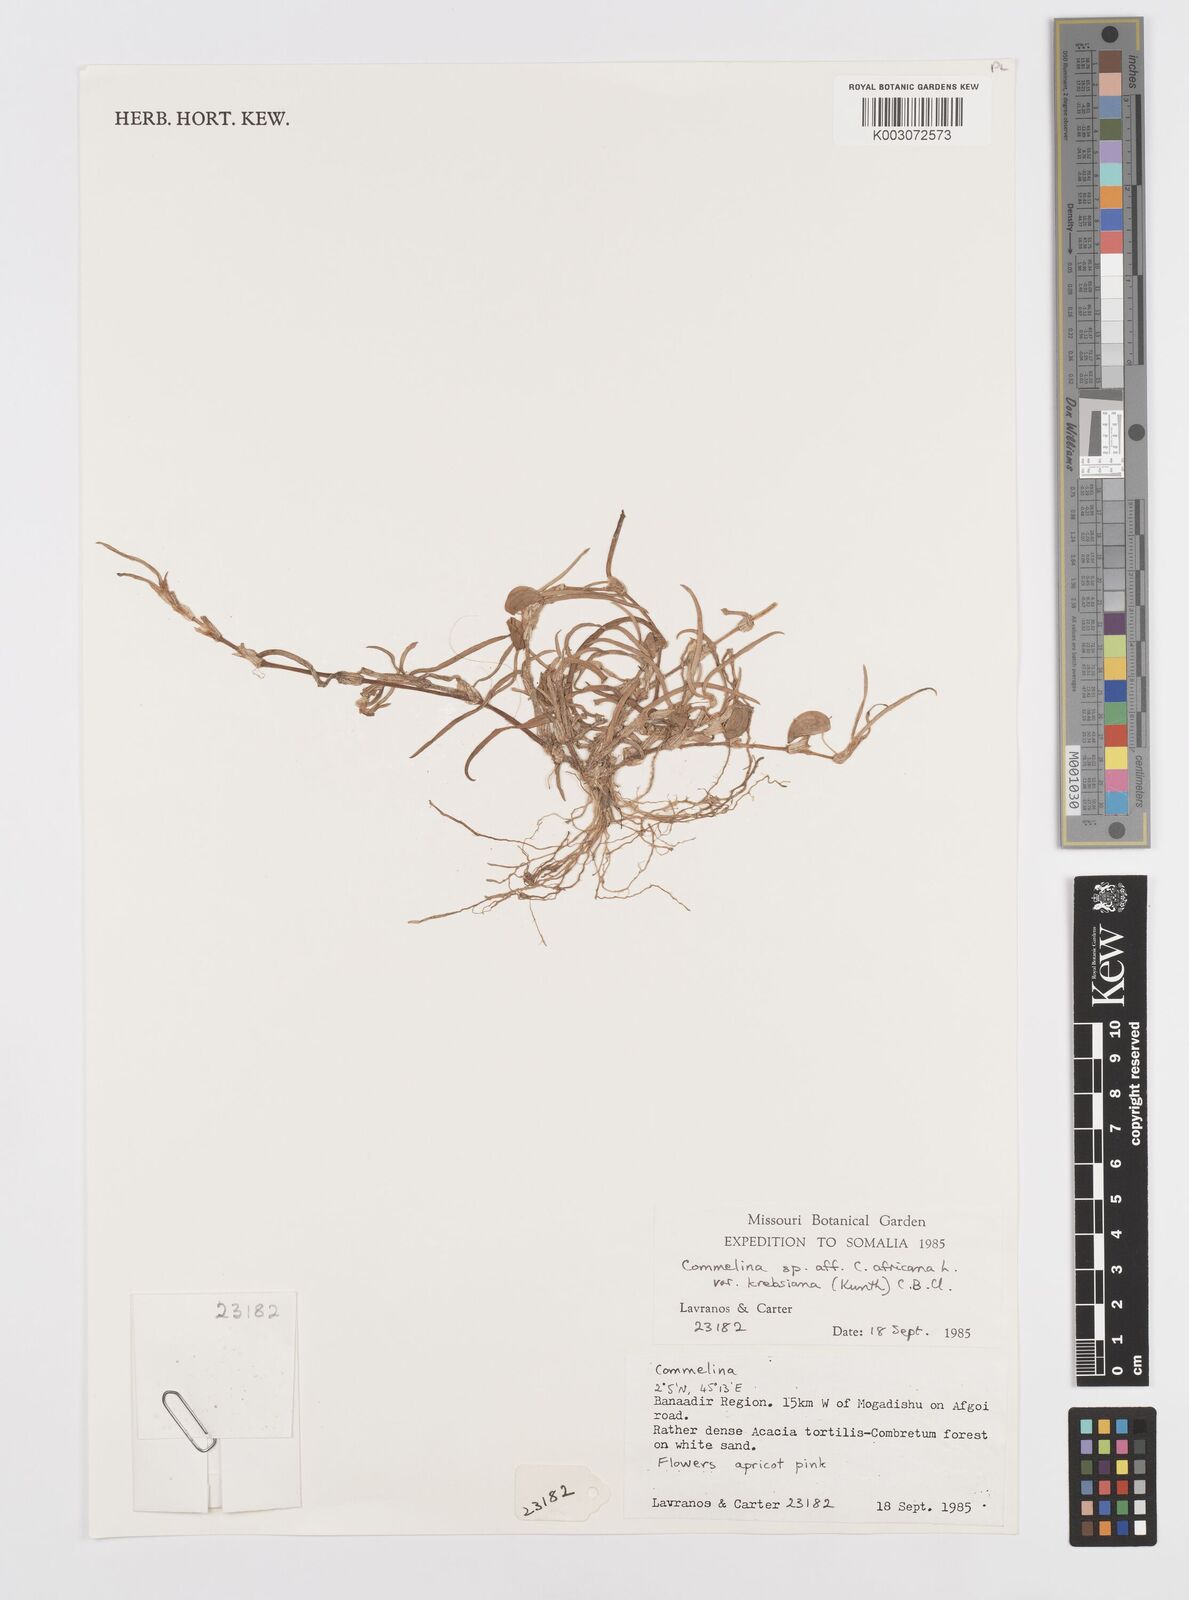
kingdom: Plantae
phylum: Tracheophyta
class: Liliopsida
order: Commelinales
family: Commelinaceae
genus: Commelina
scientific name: Commelina africana
